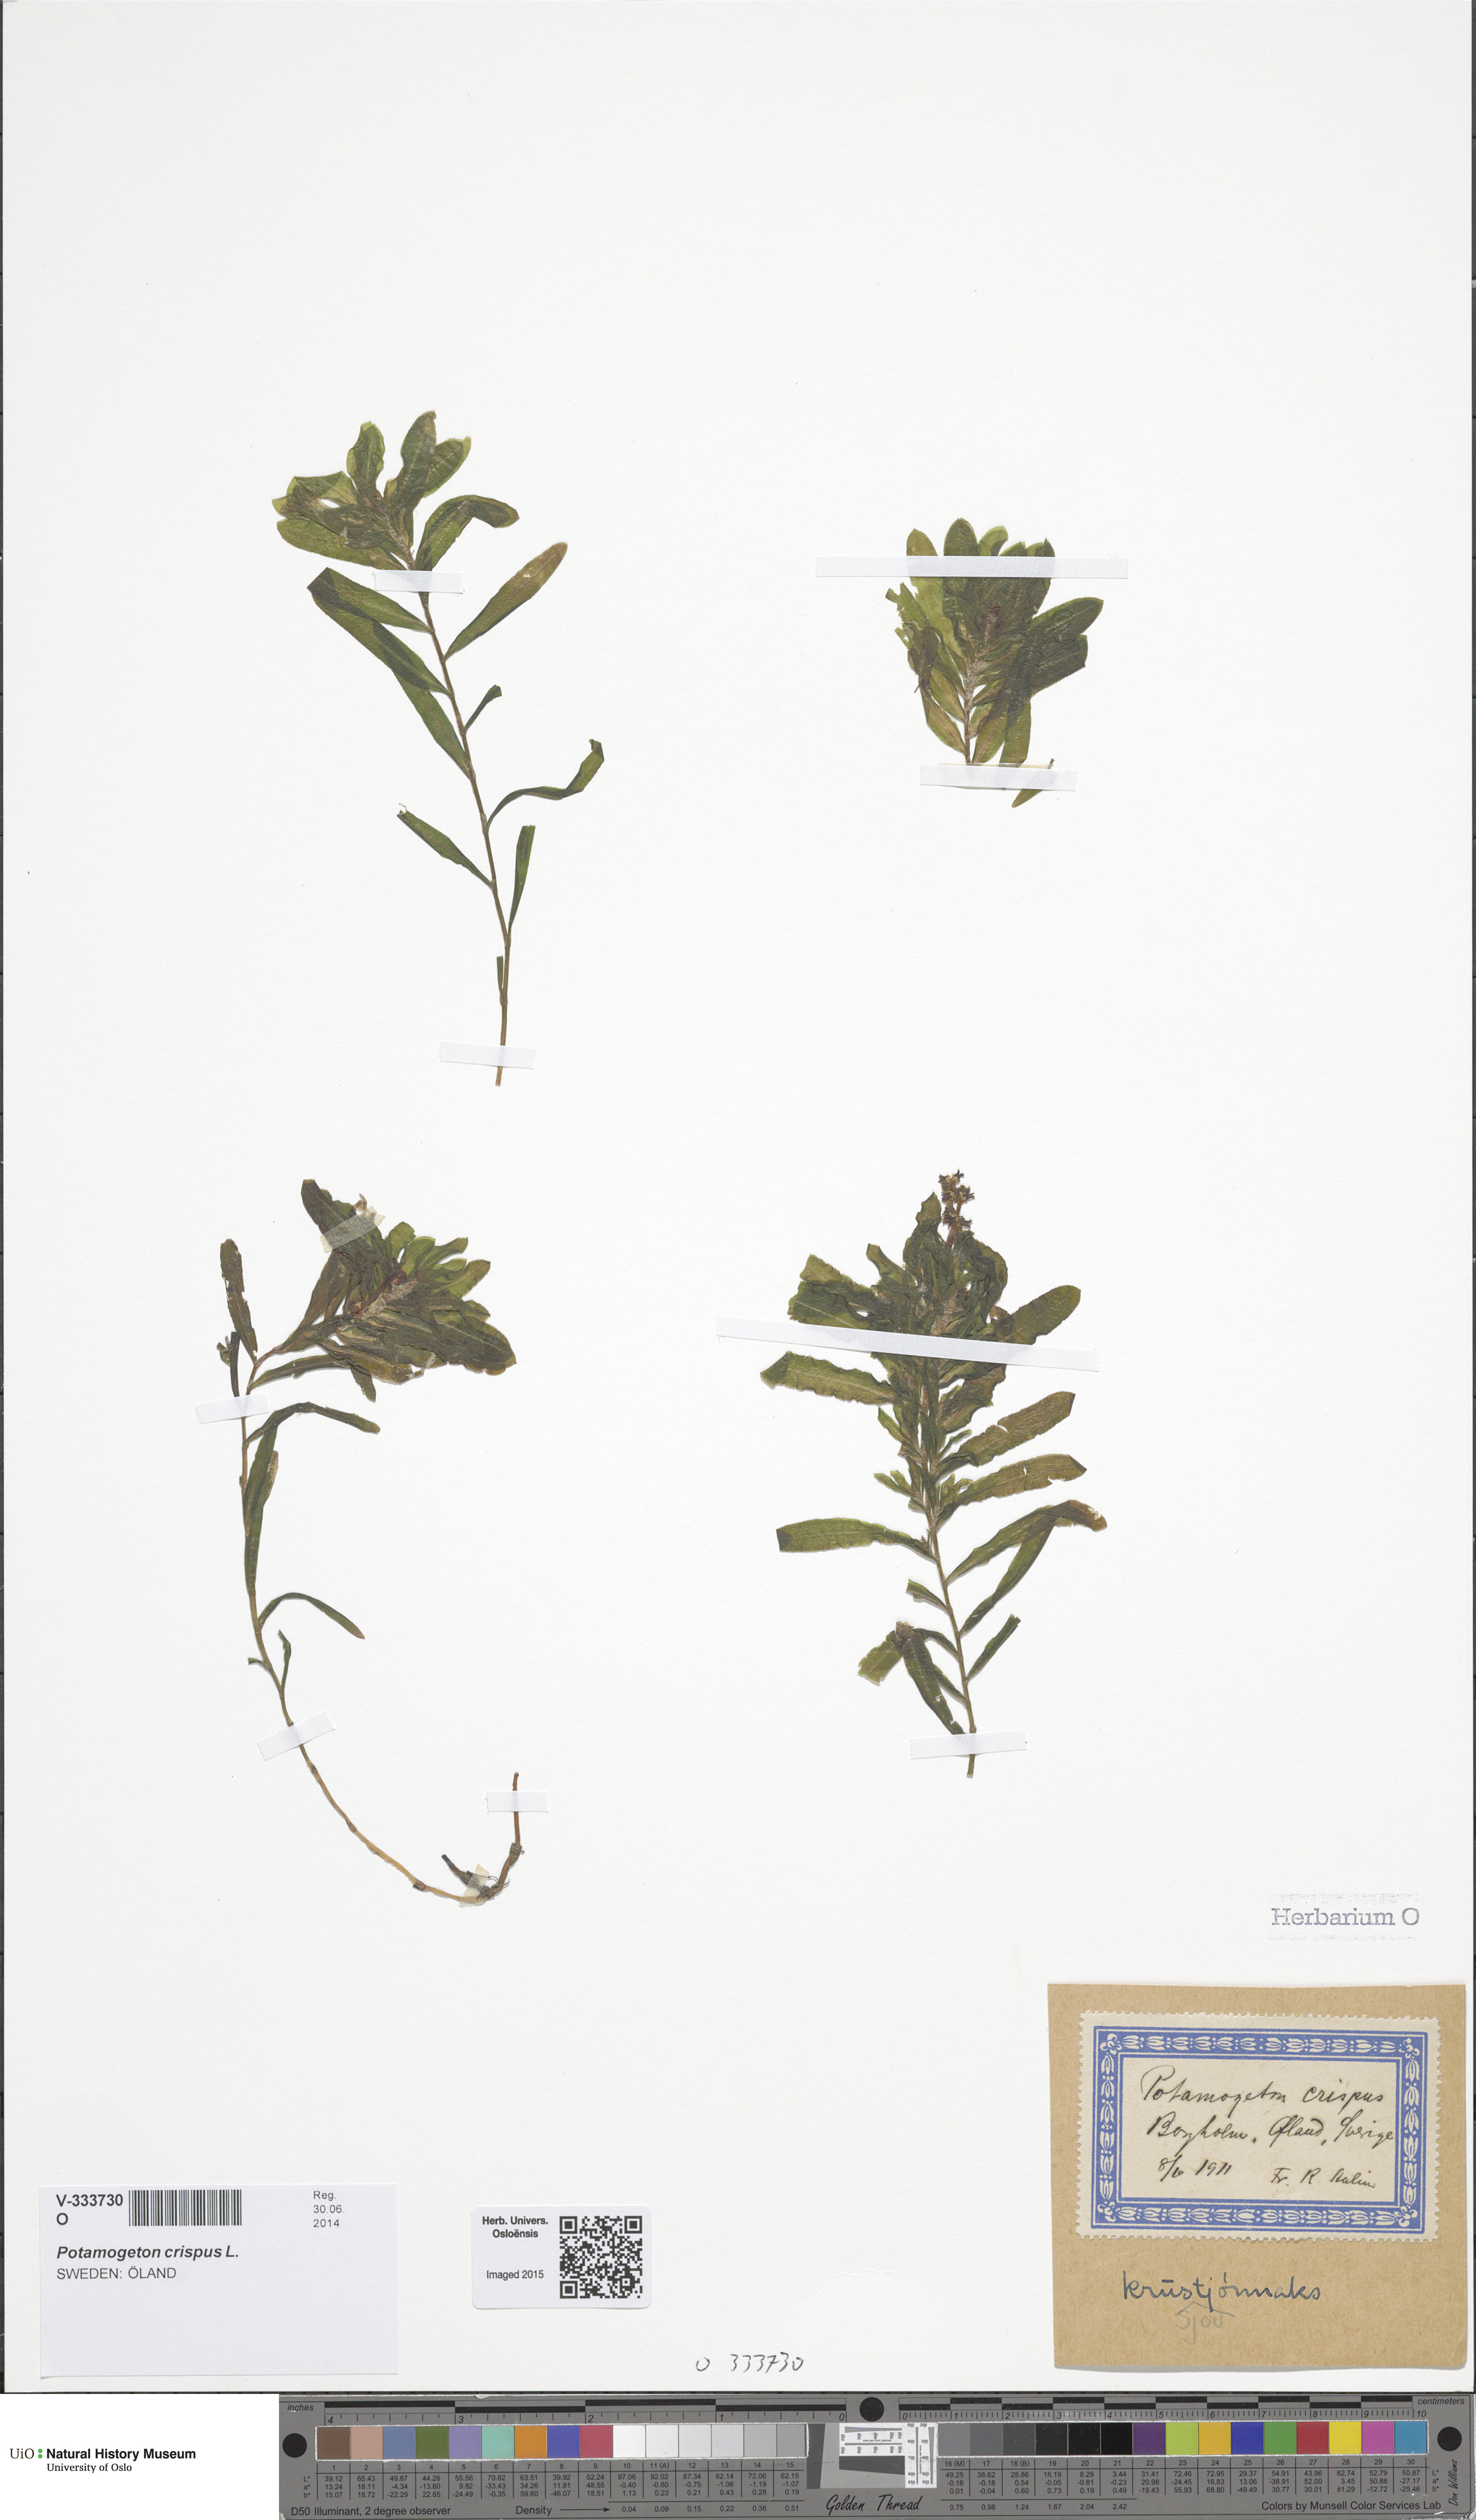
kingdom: Plantae
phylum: Tracheophyta
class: Liliopsida
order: Alismatales
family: Potamogetonaceae
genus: Potamogeton
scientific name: Potamogeton crispus
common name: Curled pondweed
